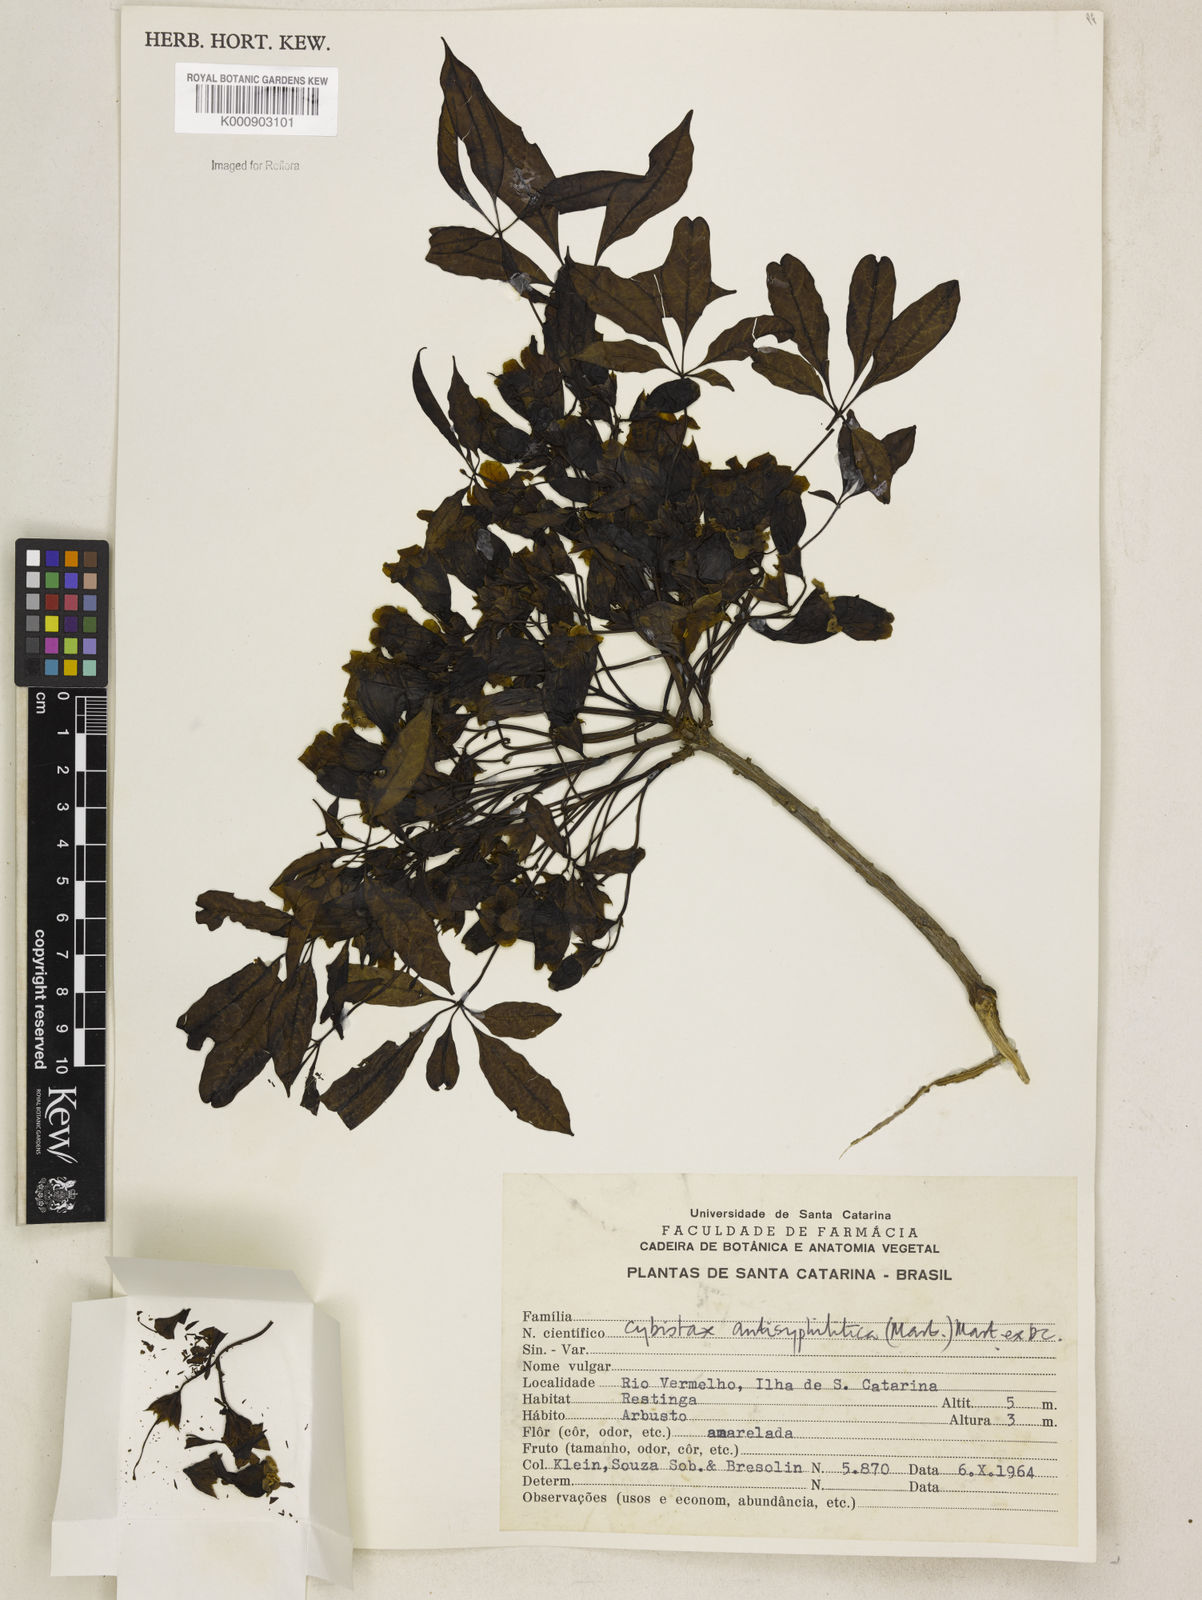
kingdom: Plantae
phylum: Tracheophyta
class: Magnoliopsida
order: Lamiales
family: Bignoniaceae
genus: Cybistax
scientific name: Cybistax antisyphilitica
